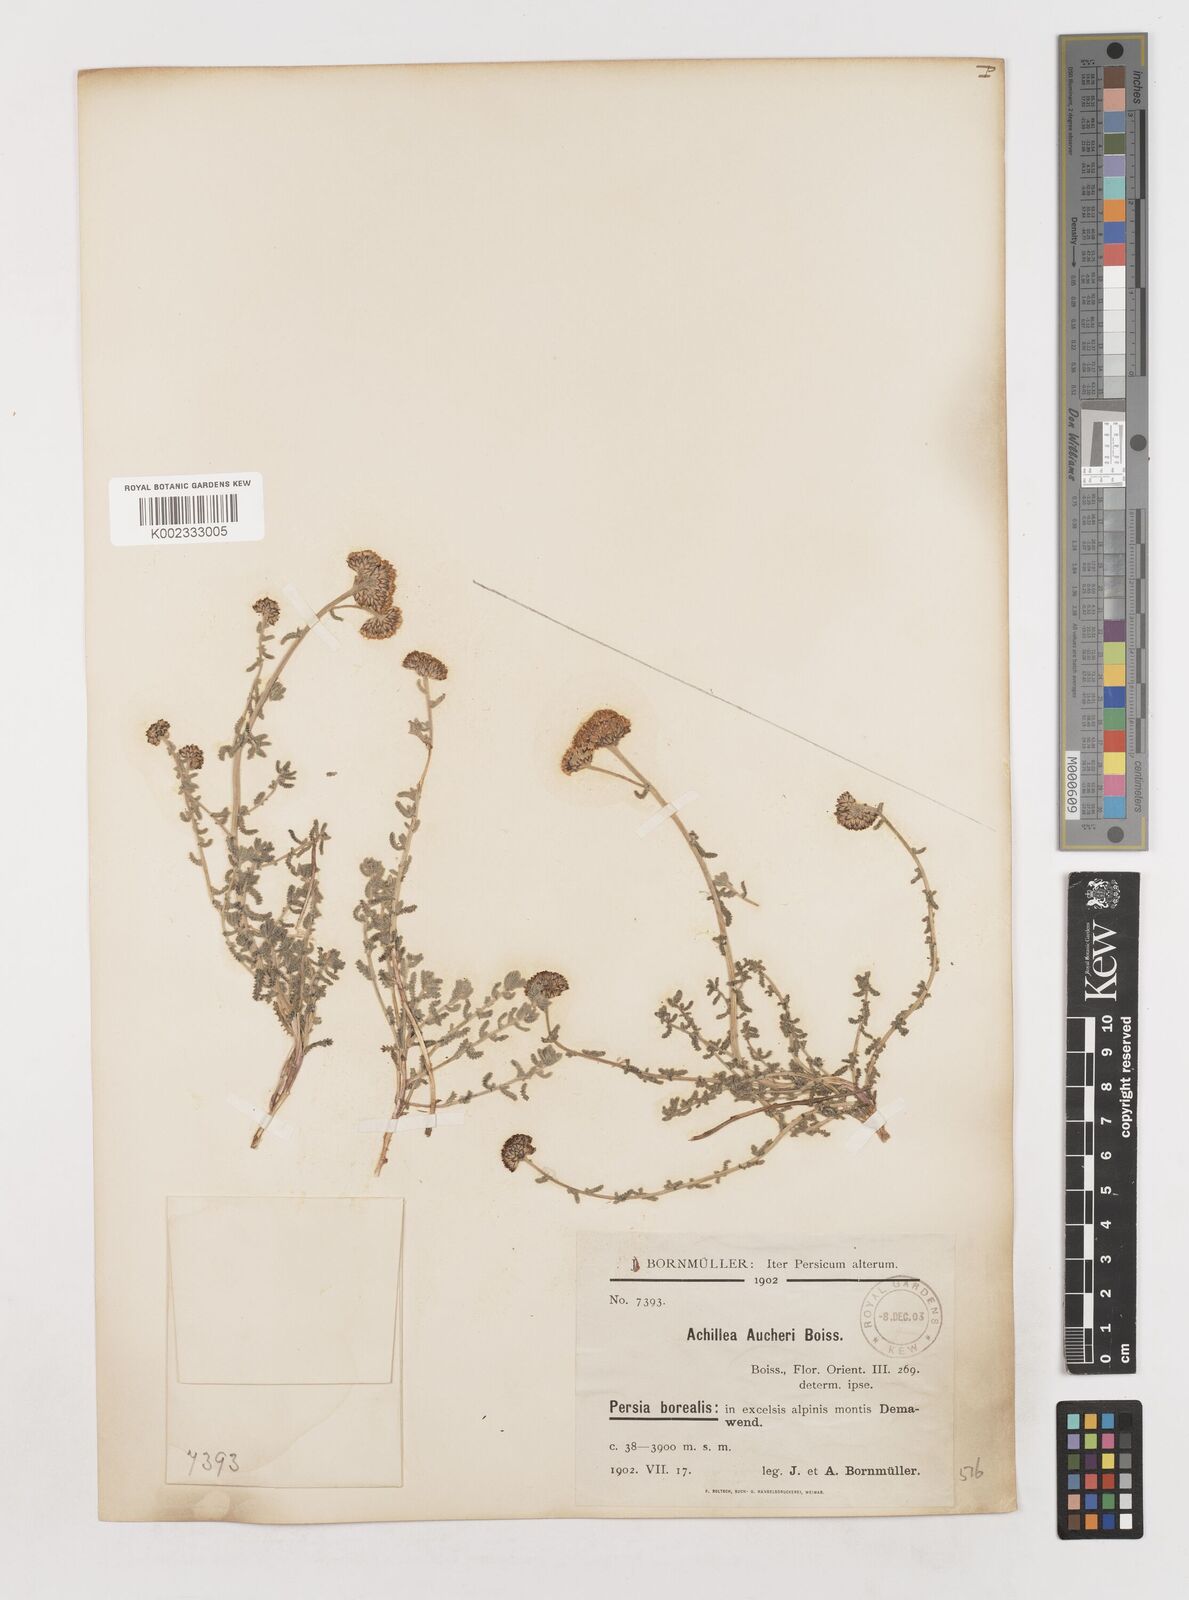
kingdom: Plantae
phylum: Tracheophyta
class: Magnoliopsida
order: Asterales
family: Asteraceae
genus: Achillea
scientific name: Achillea aucheri
